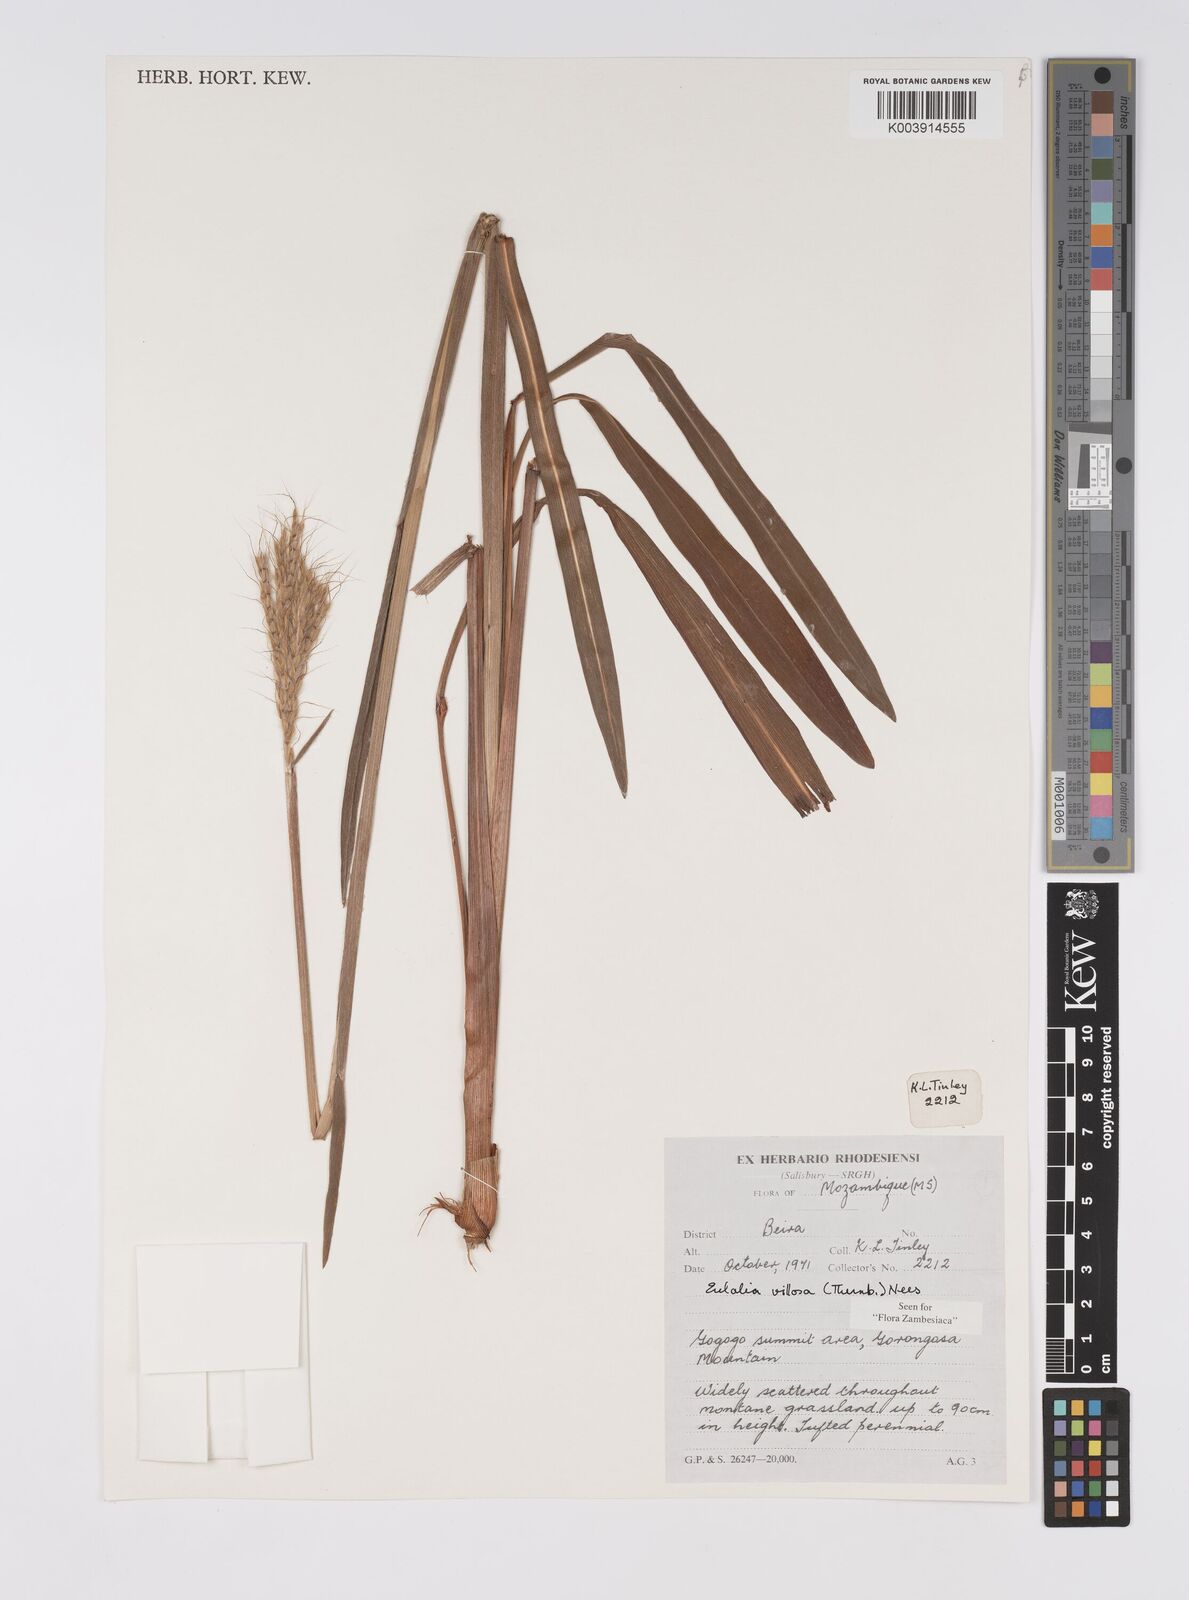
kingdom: Plantae
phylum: Tracheophyta
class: Liliopsida
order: Poales
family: Poaceae
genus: Eulalia
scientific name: Eulalia villosa
